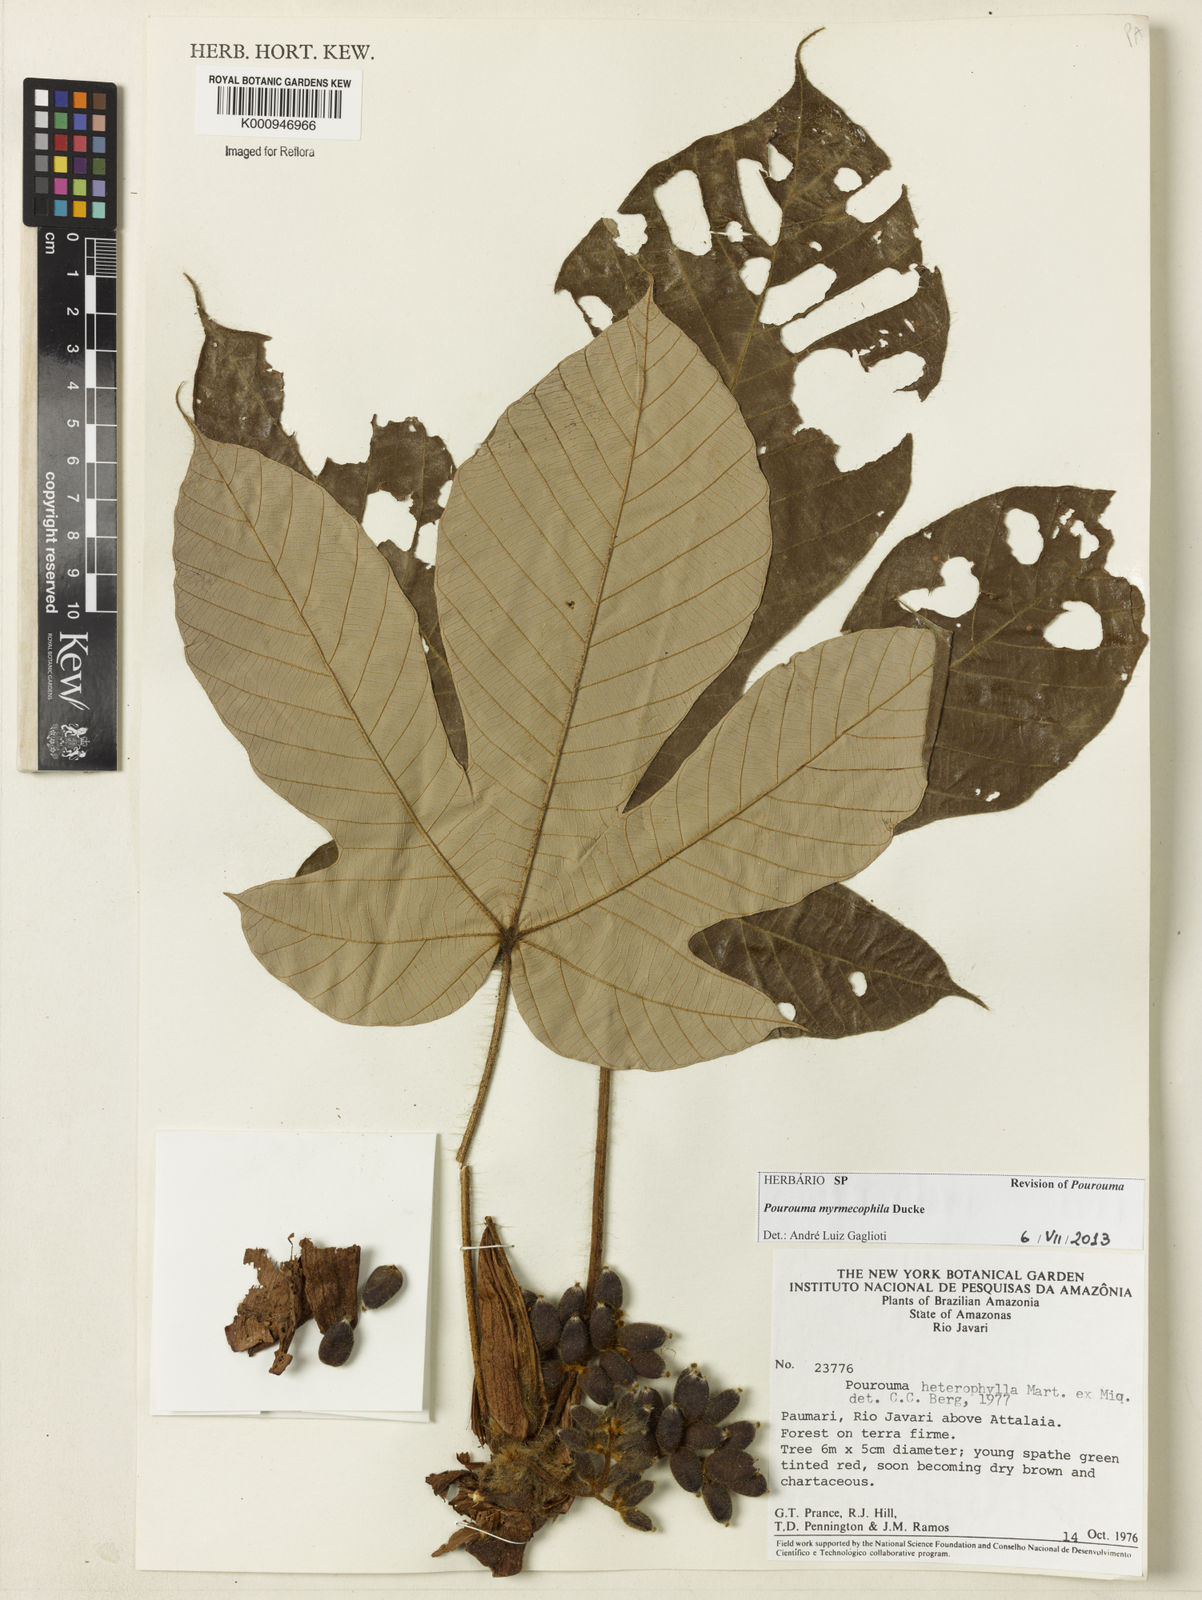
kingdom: Plantae
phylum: Tracheophyta
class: Magnoliopsida
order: Rosales
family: Urticaceae
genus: Pourouma
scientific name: Pourouma myrmecophila
